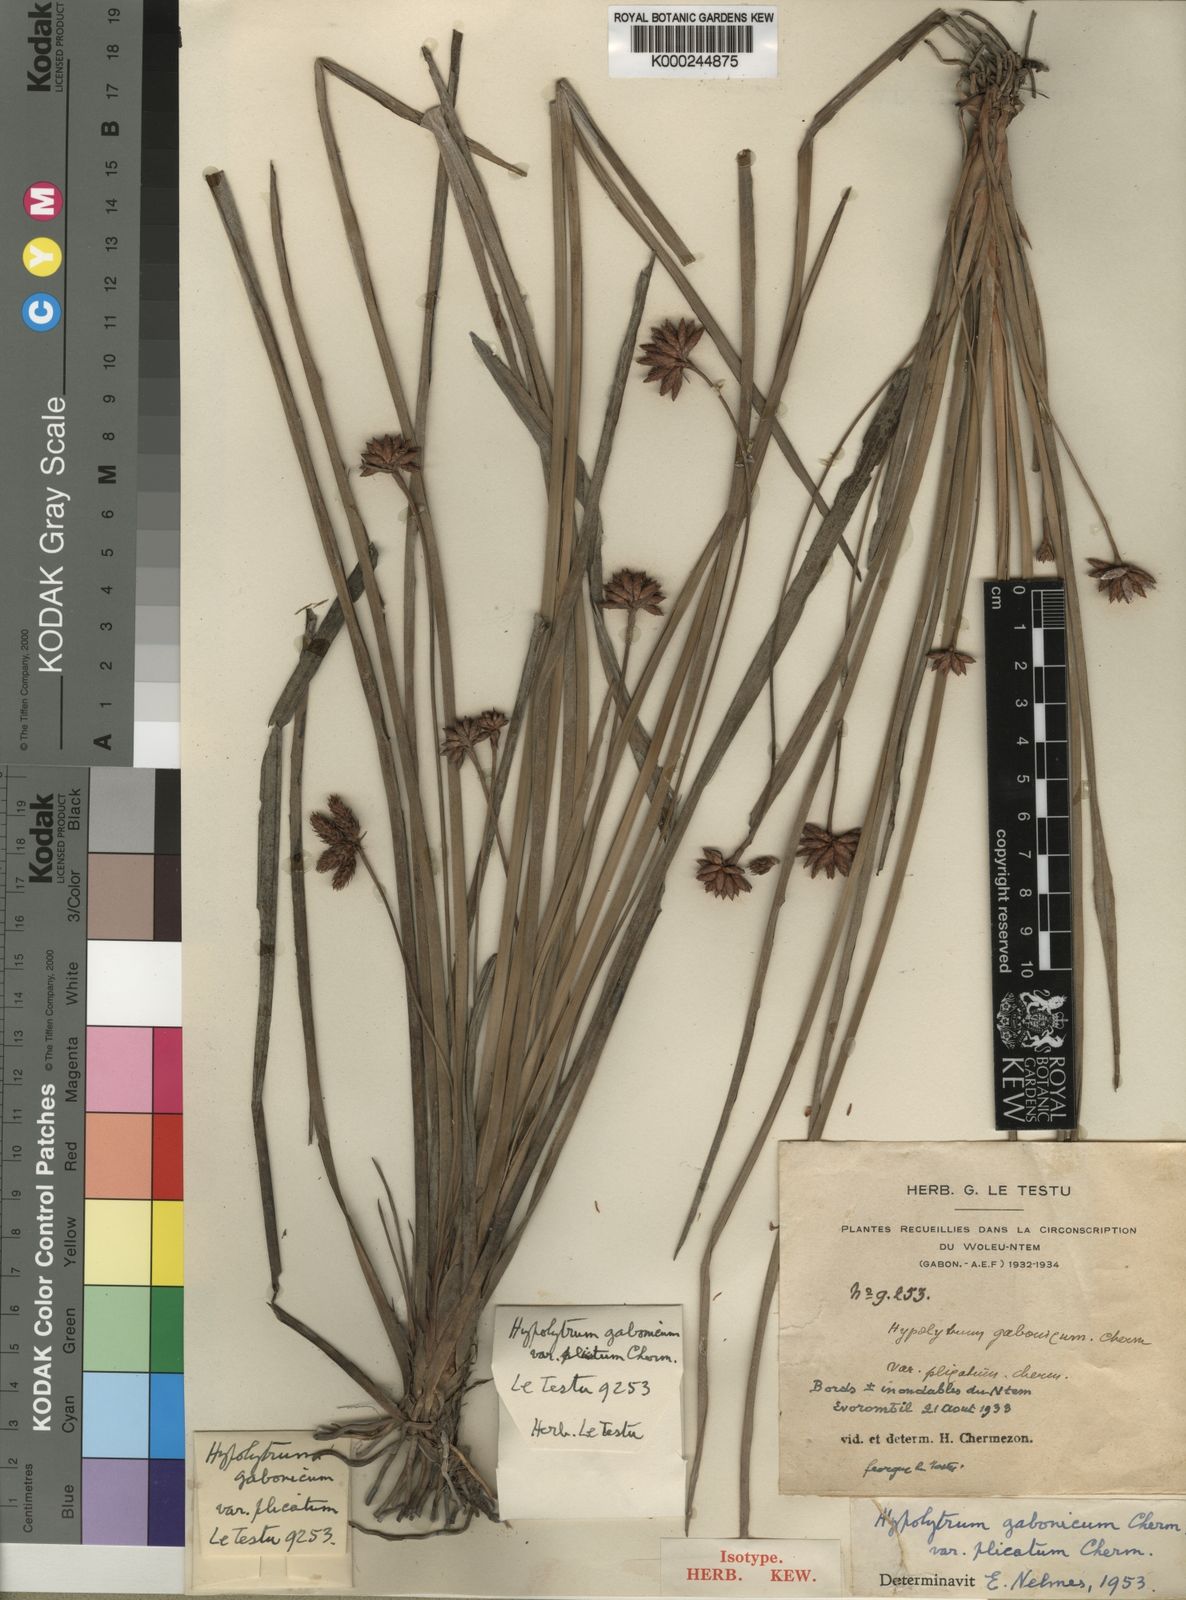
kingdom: Plantae
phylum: Tracheophyta
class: Liliopsida
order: Poales
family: Cyperaceae
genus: Hypolytrum
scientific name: Hypolytrum pynaertii
